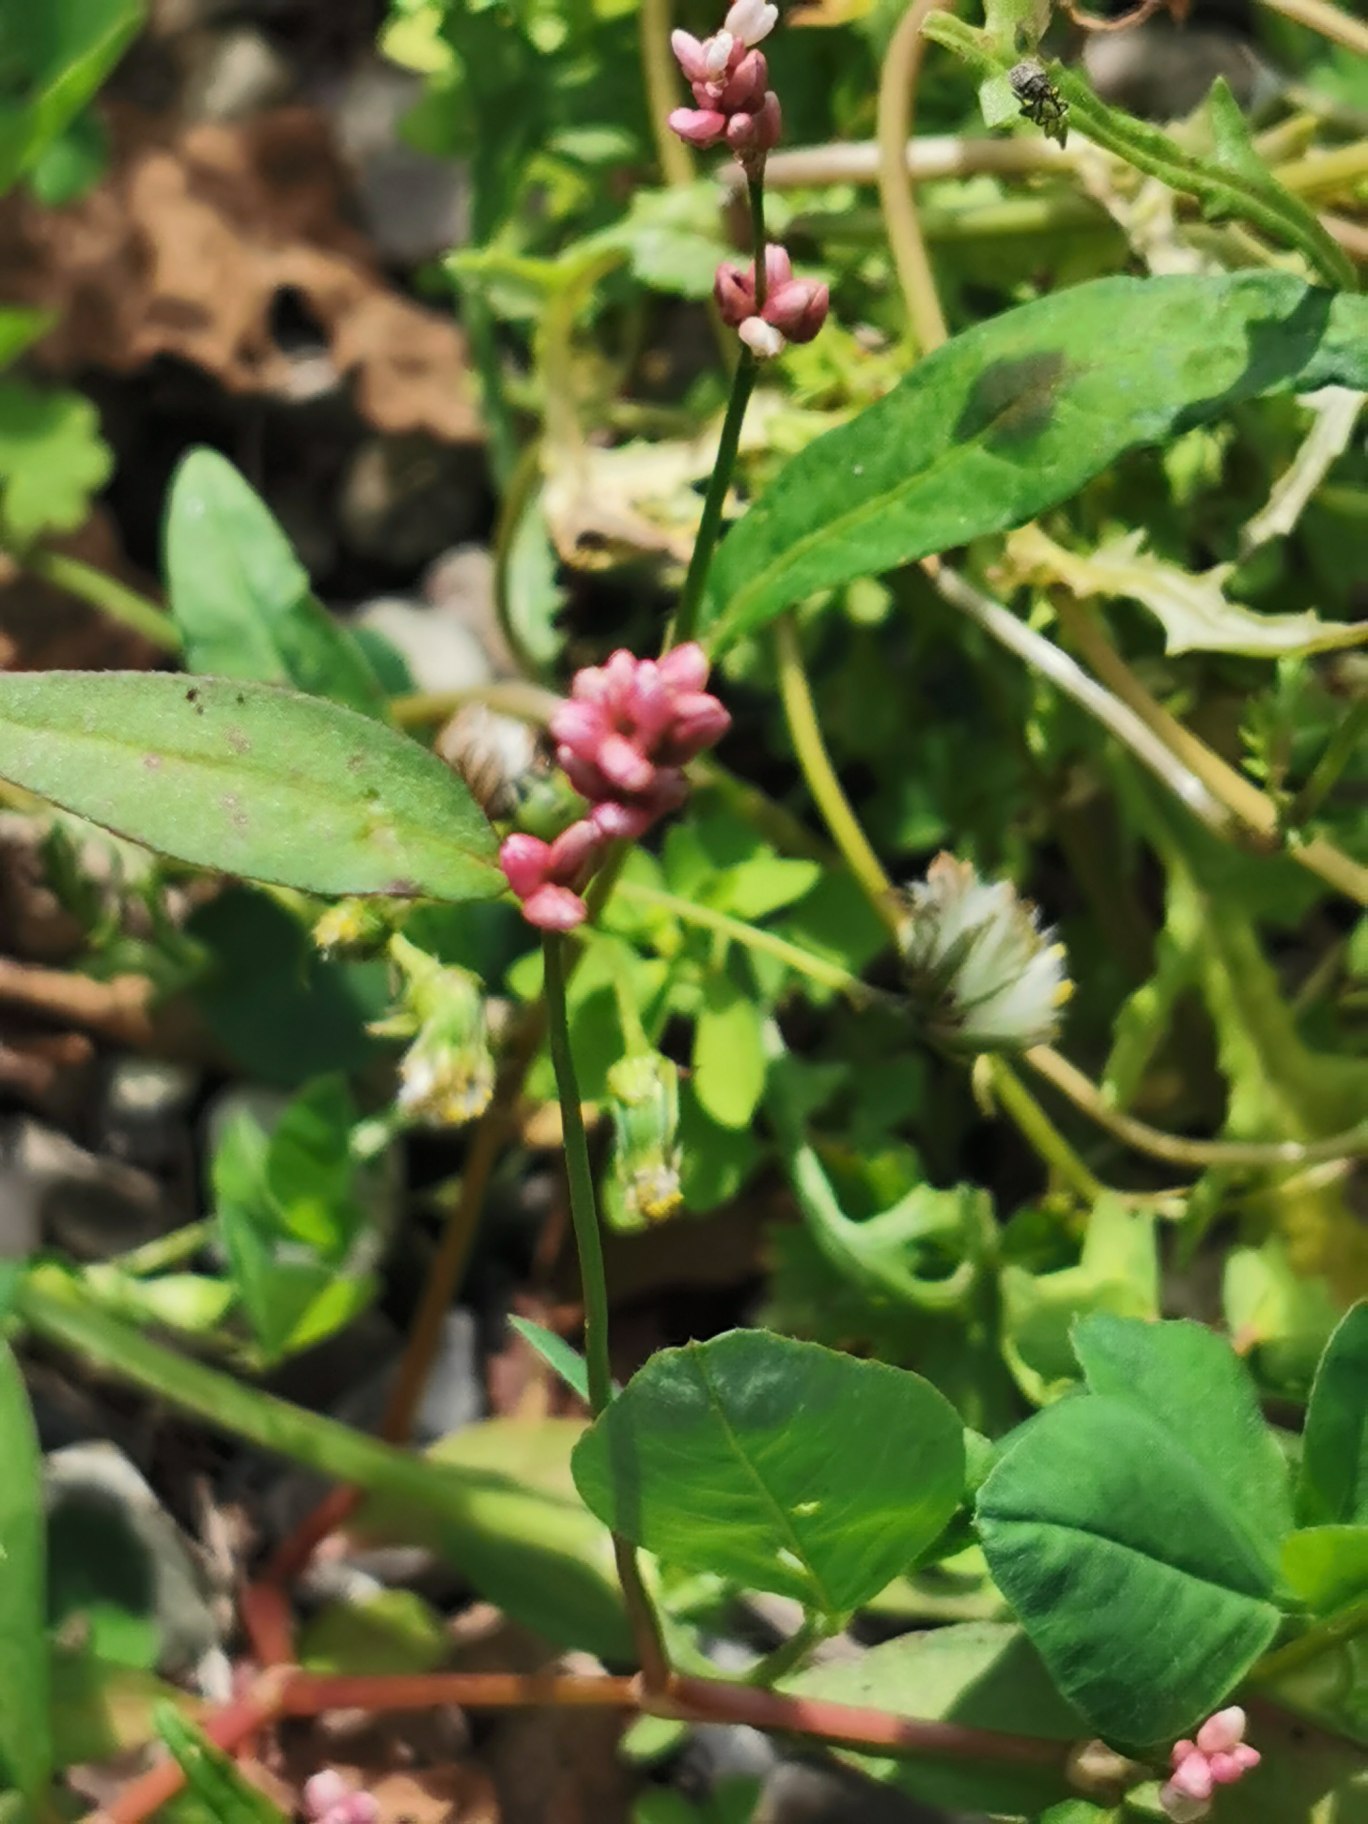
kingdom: Plantae
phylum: Tracheophyta
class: Magnoliopsida
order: Caryophyllales
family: Polygonaceae
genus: Persicaria
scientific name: Persicaria maculosa
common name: Fersken-pileurt
